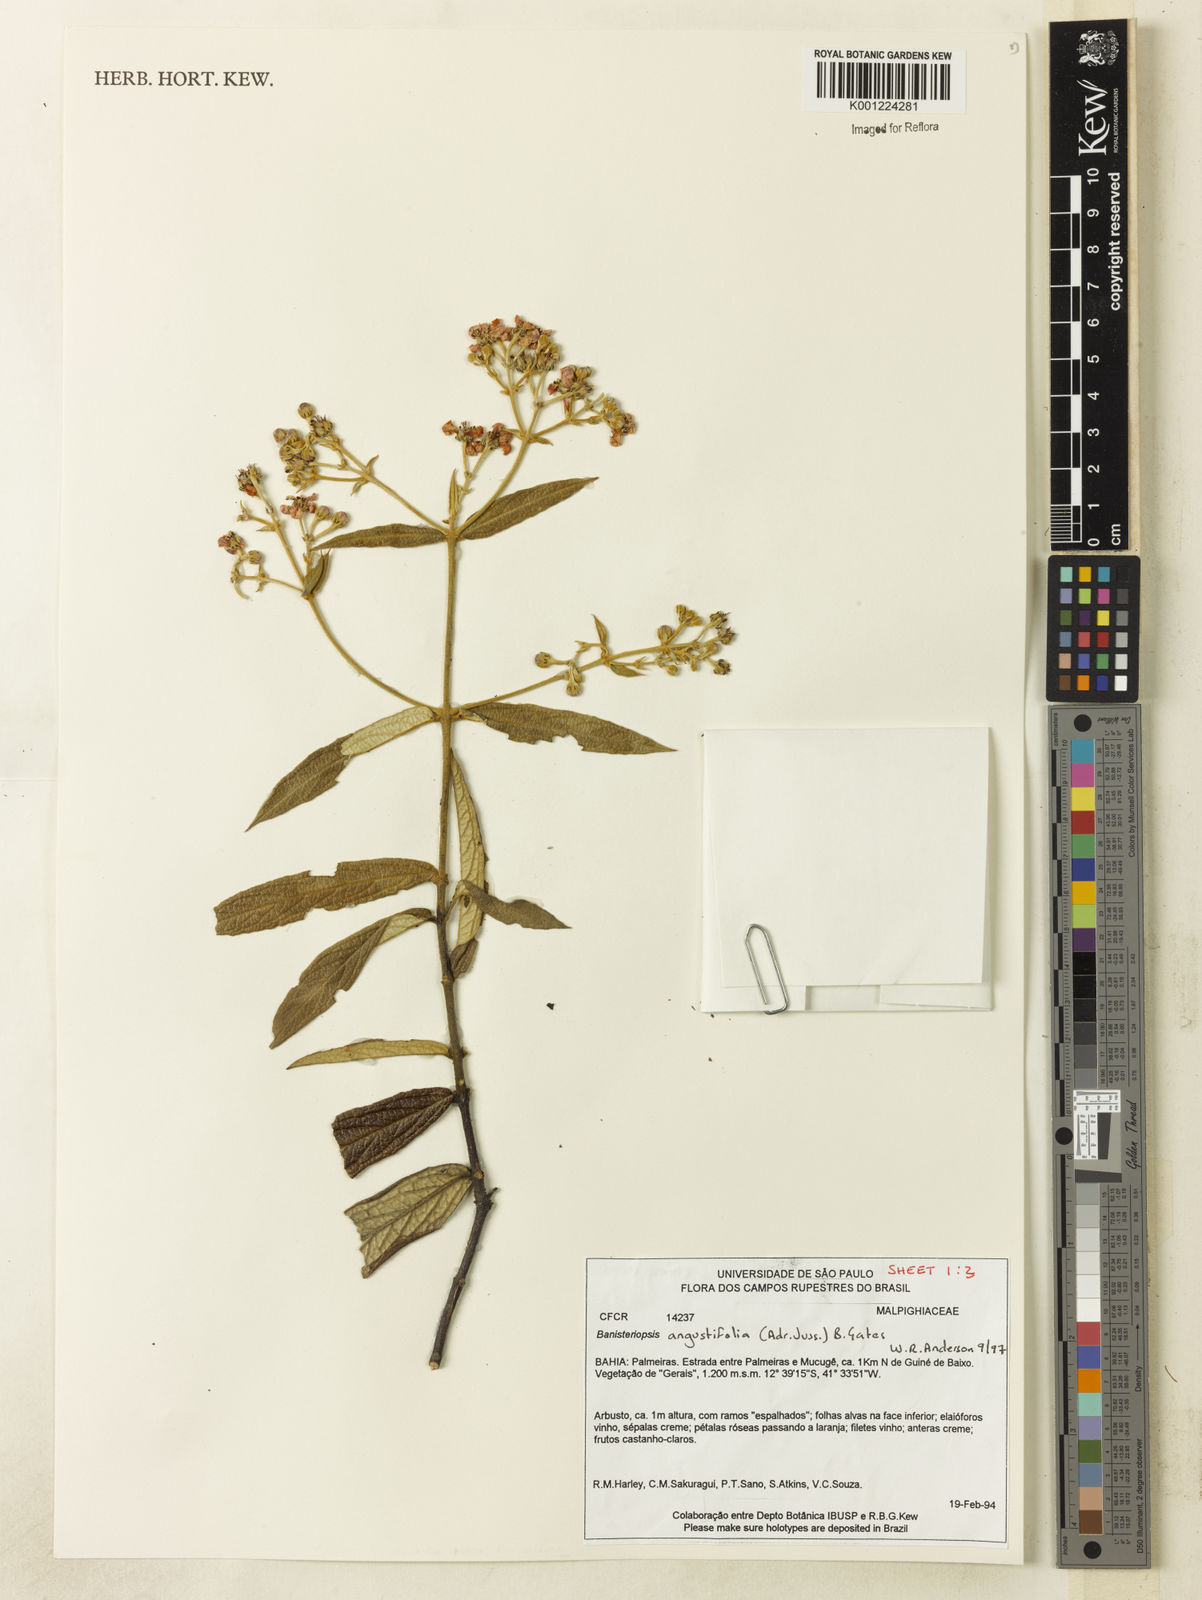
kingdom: Plantae
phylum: Tracheophyta
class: Magnoliopsida
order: Malpighiales
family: Malpighiaceae
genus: Banisteriopsis
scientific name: Banisteriopsis angustifolia
